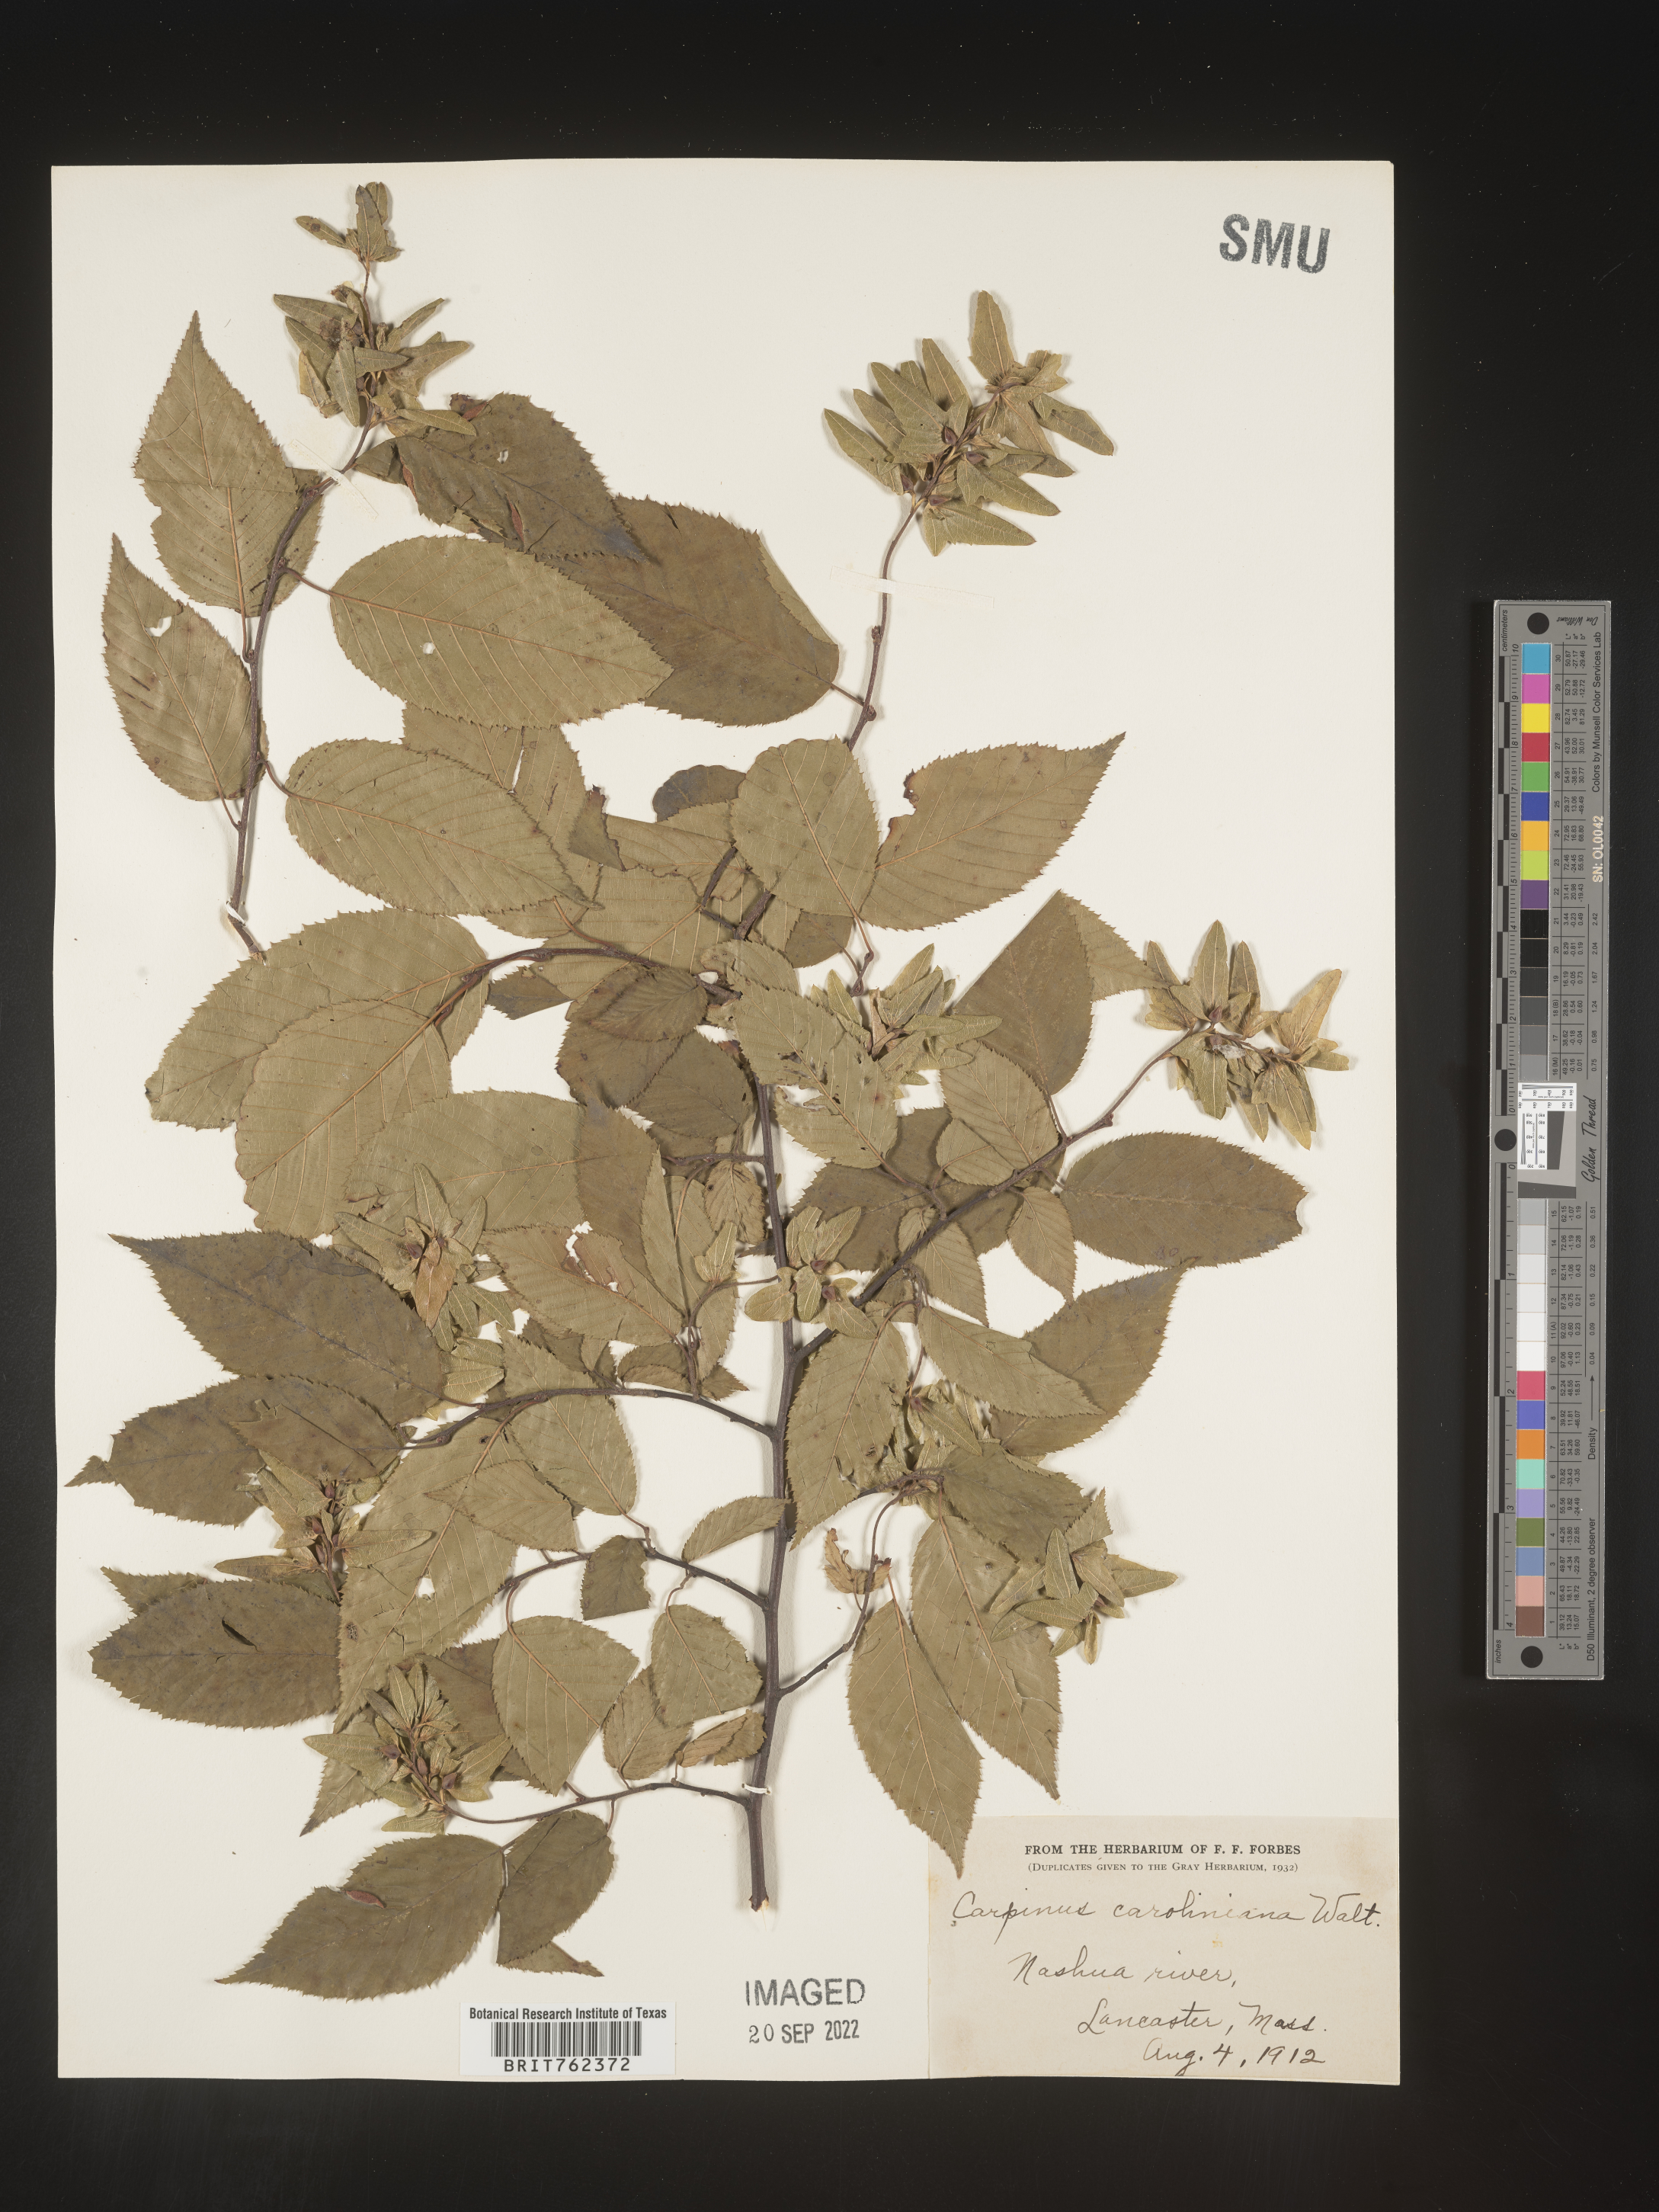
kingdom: Plantae
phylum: Tracheophyta
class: Magnoliopsida
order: Fagales
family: Betulaceae
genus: Carpinus
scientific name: Carpinus caroliniana
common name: American hornbeam
